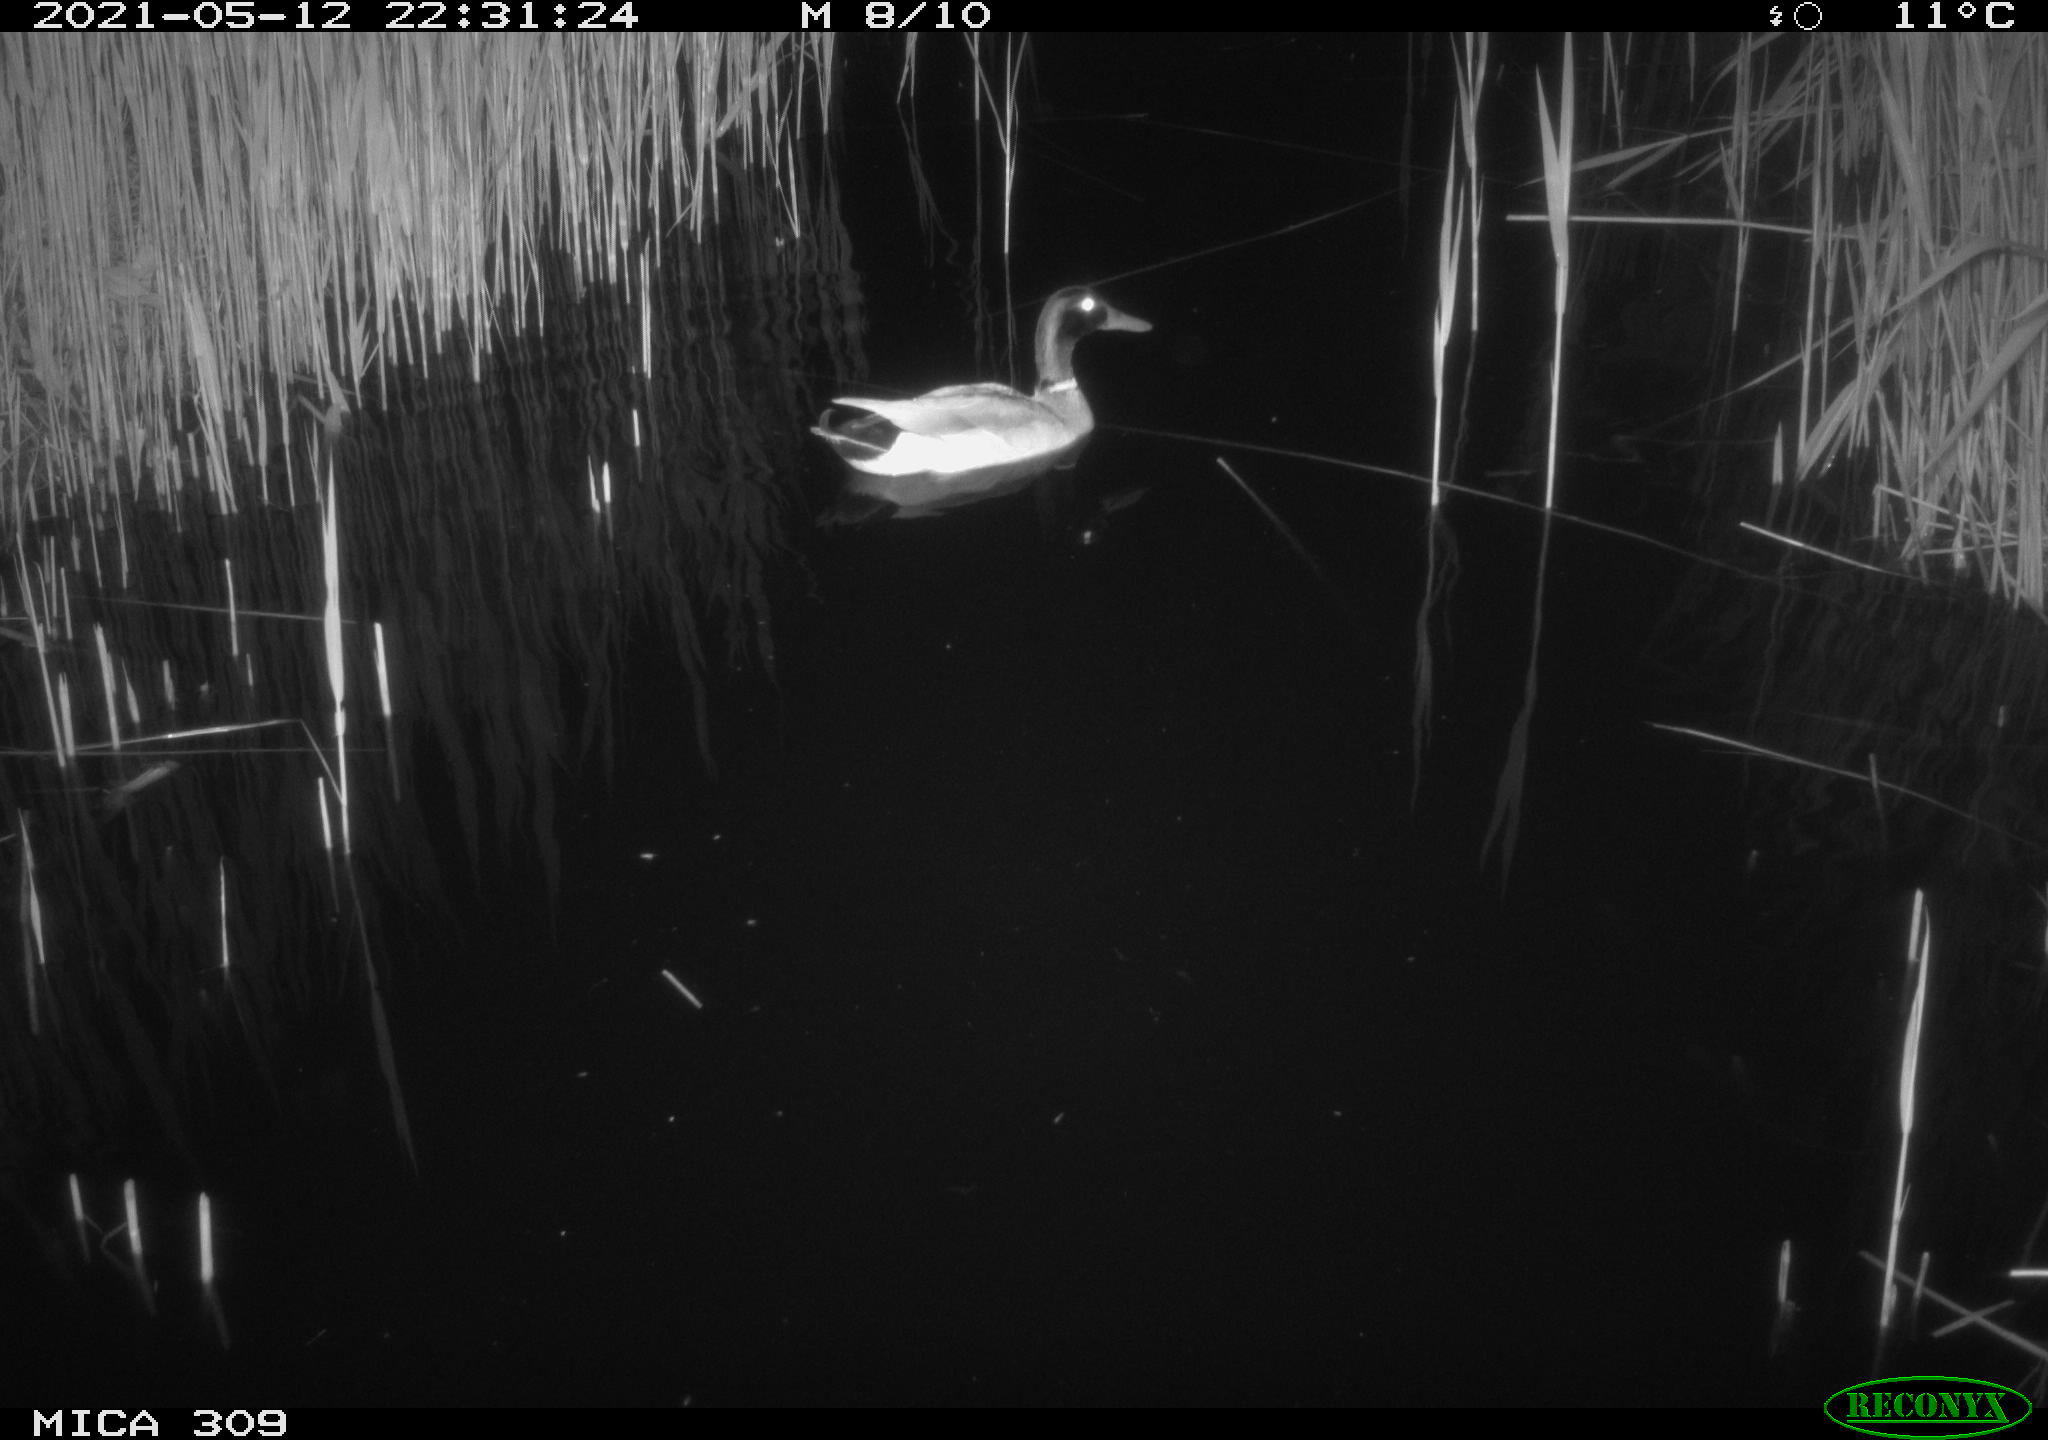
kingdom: Animalia
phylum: Chordata
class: Aves
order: Anseriformes
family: Anatidae
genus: Anas
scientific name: Anas platyrhynchos
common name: Mallard
